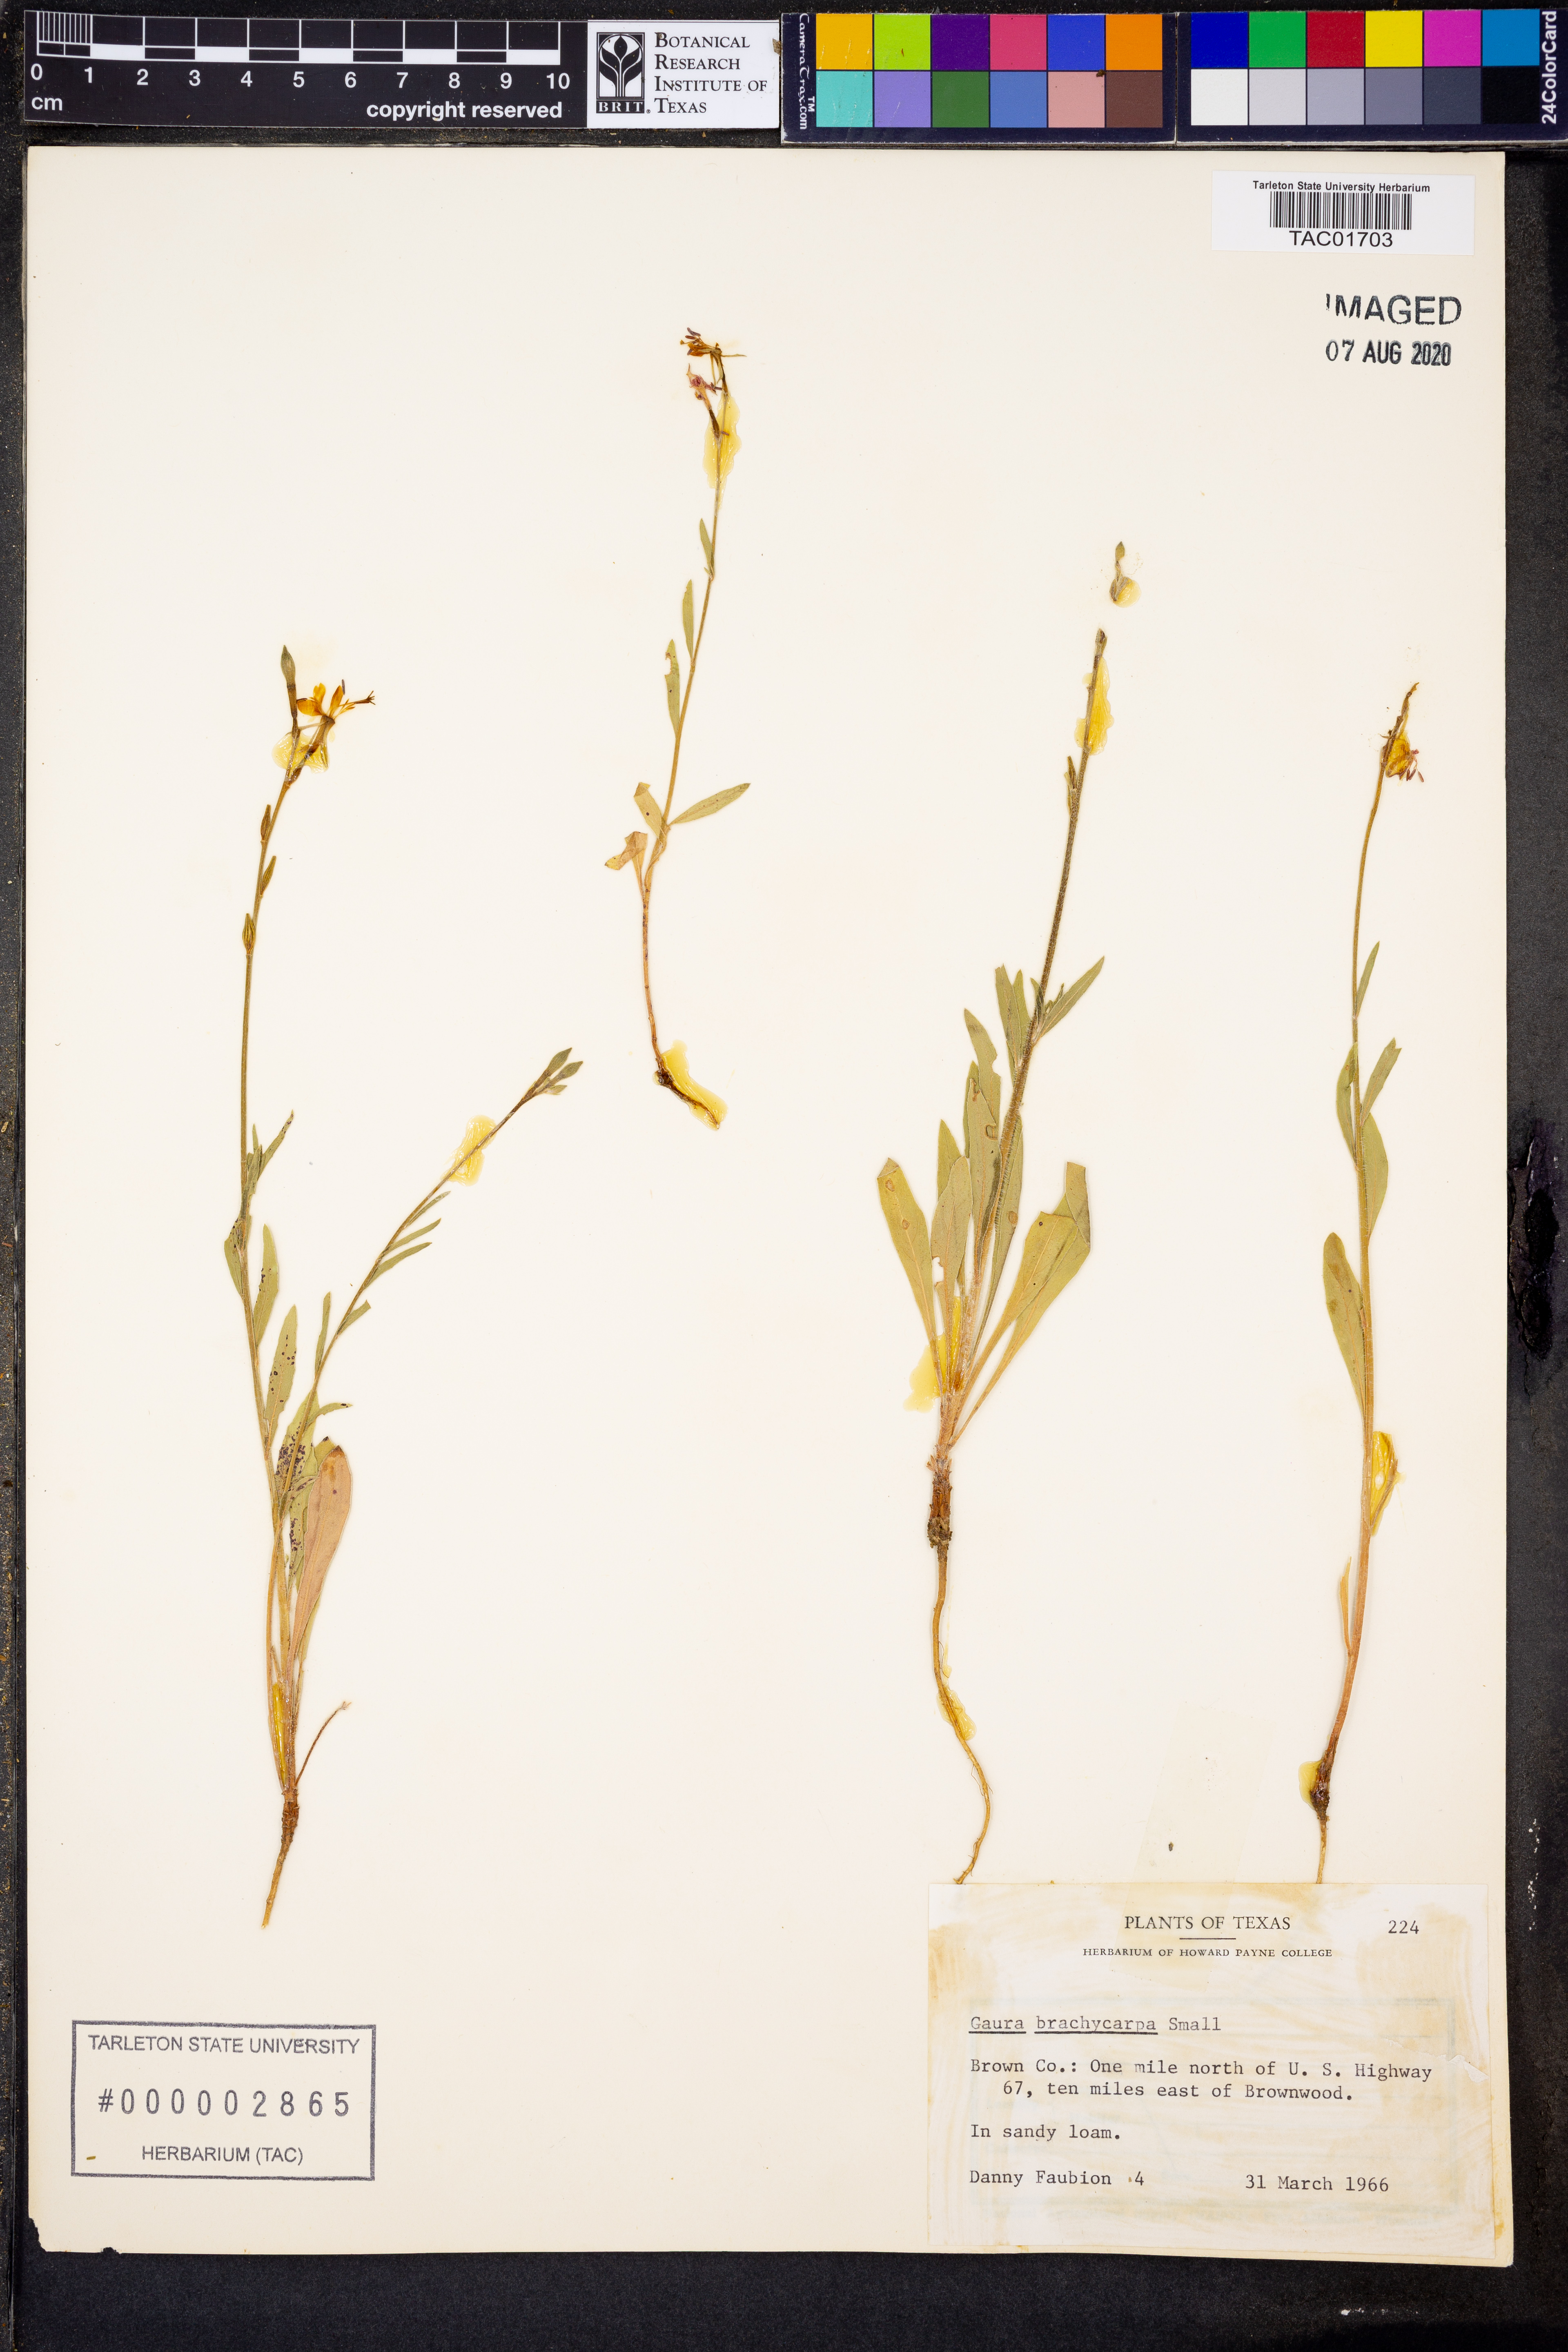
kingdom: Plantae
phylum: Tracheophyta
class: Magnoliopsida
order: Myrtales
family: Onagraceae
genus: Oenothera
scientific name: Oenothera patriciae
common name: Plains beeblossom
